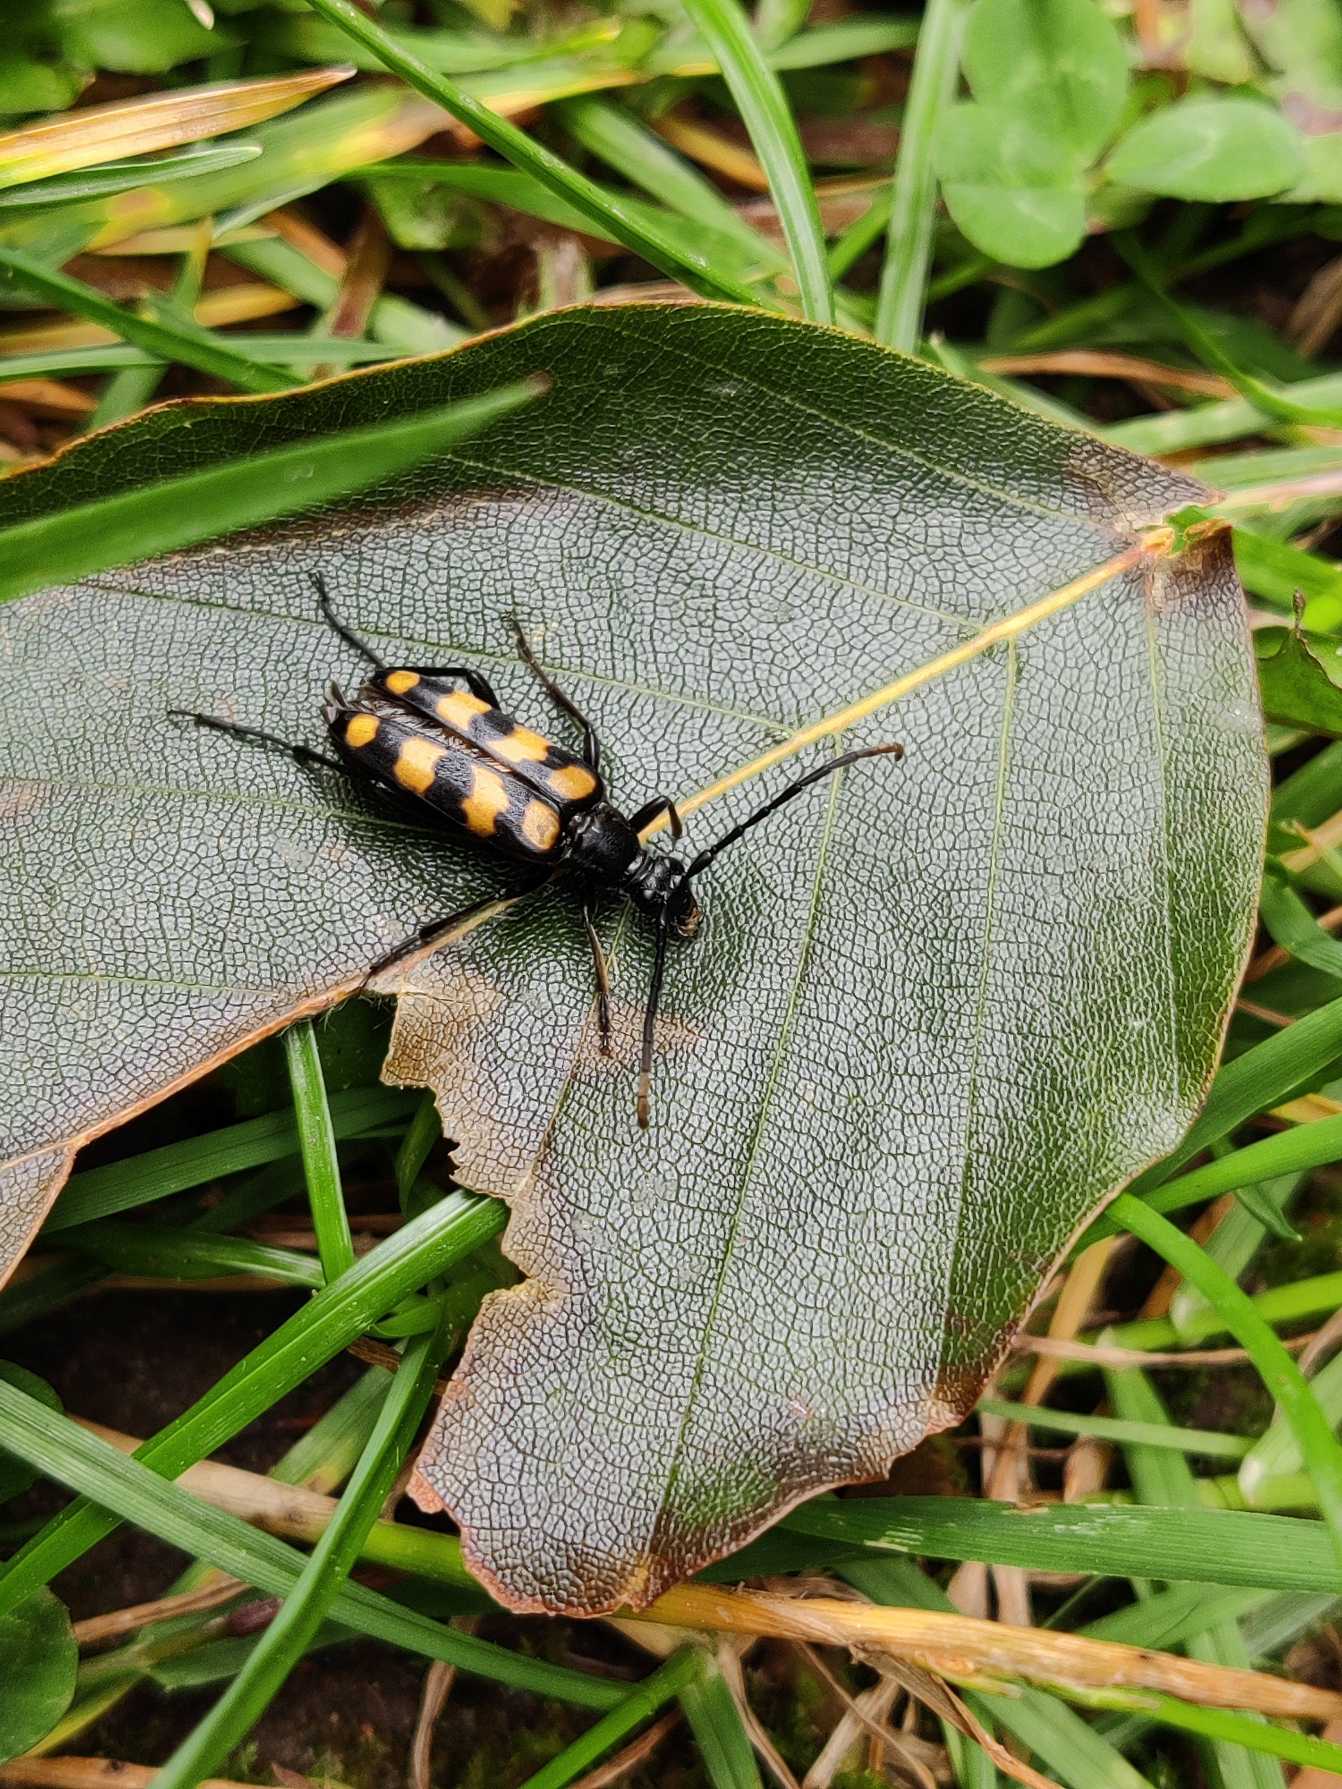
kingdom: Animalia
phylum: Arthropoda
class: Insecta
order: Coleoptera
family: Cerambycidae
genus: Leptura
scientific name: Leptura quadrifasciata
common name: Firebåndet blomsterbuk
